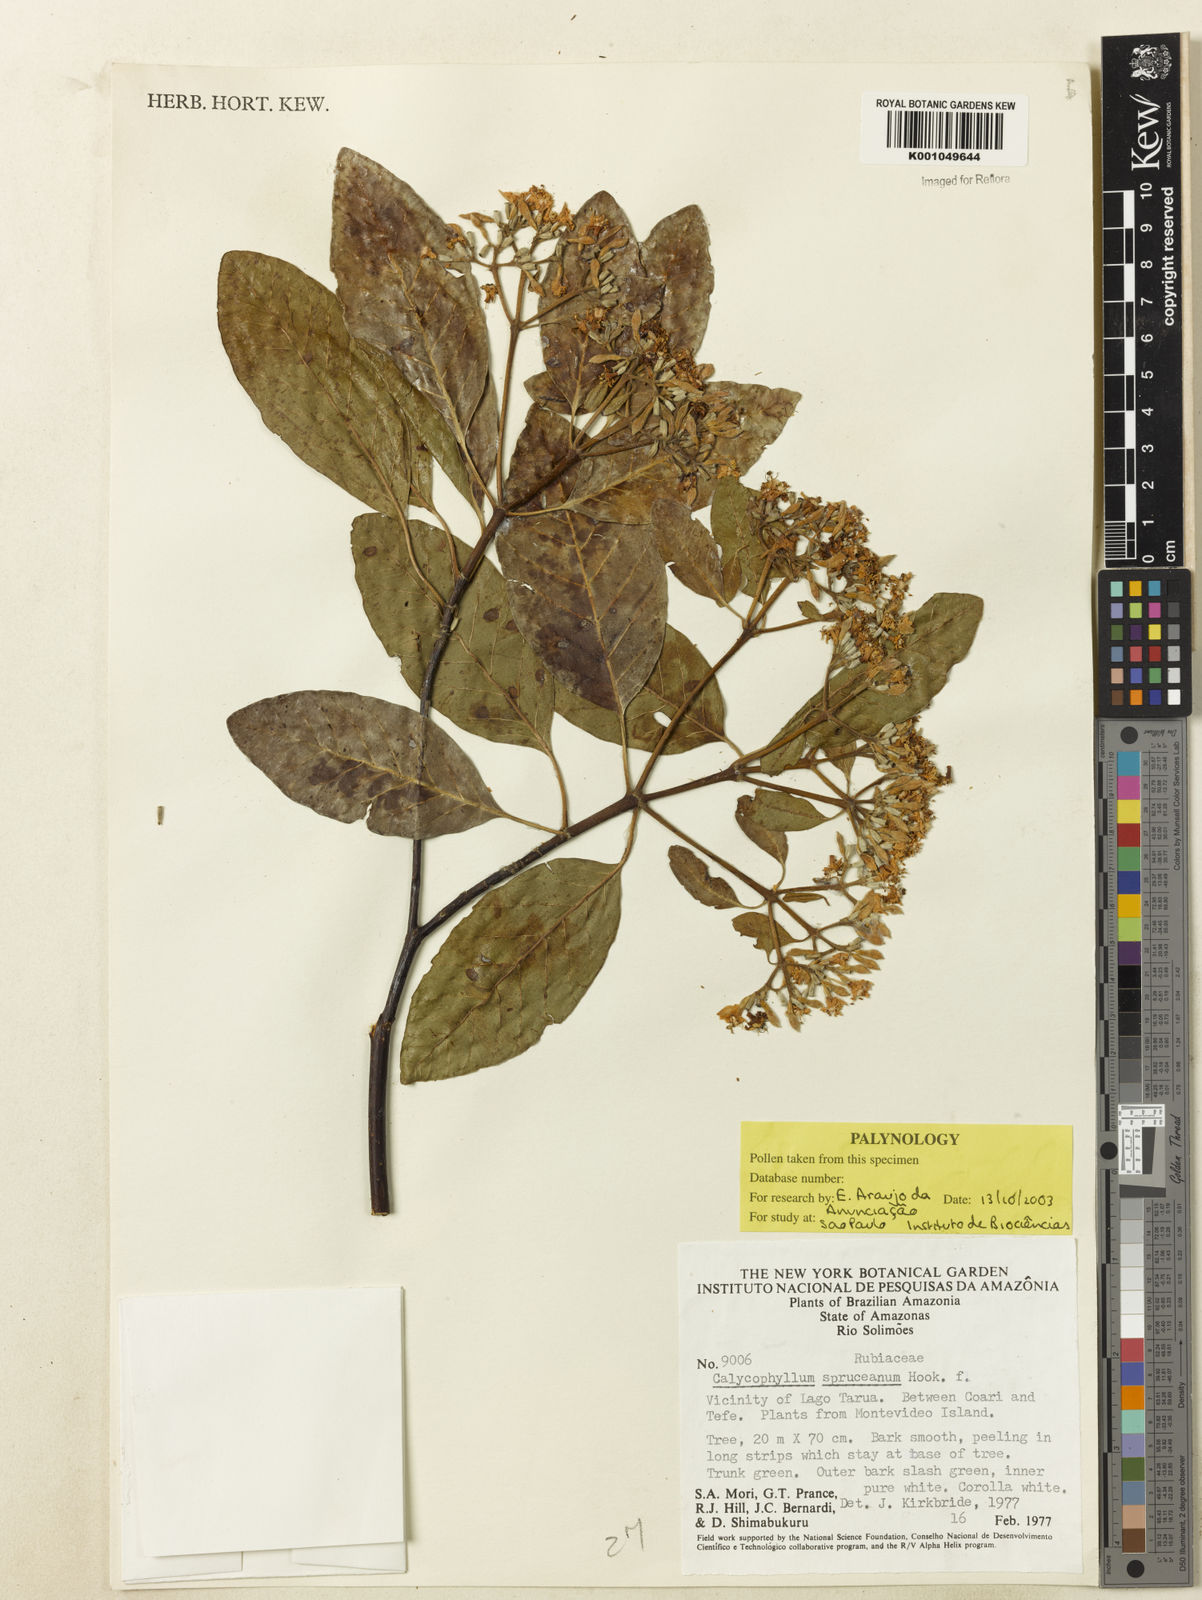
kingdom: Plantae
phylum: Tracheophyta
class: Magnoliopsida
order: Gentianales
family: Rubiaceae
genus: Calycophyllum
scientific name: Calycophyllum spruceanum
